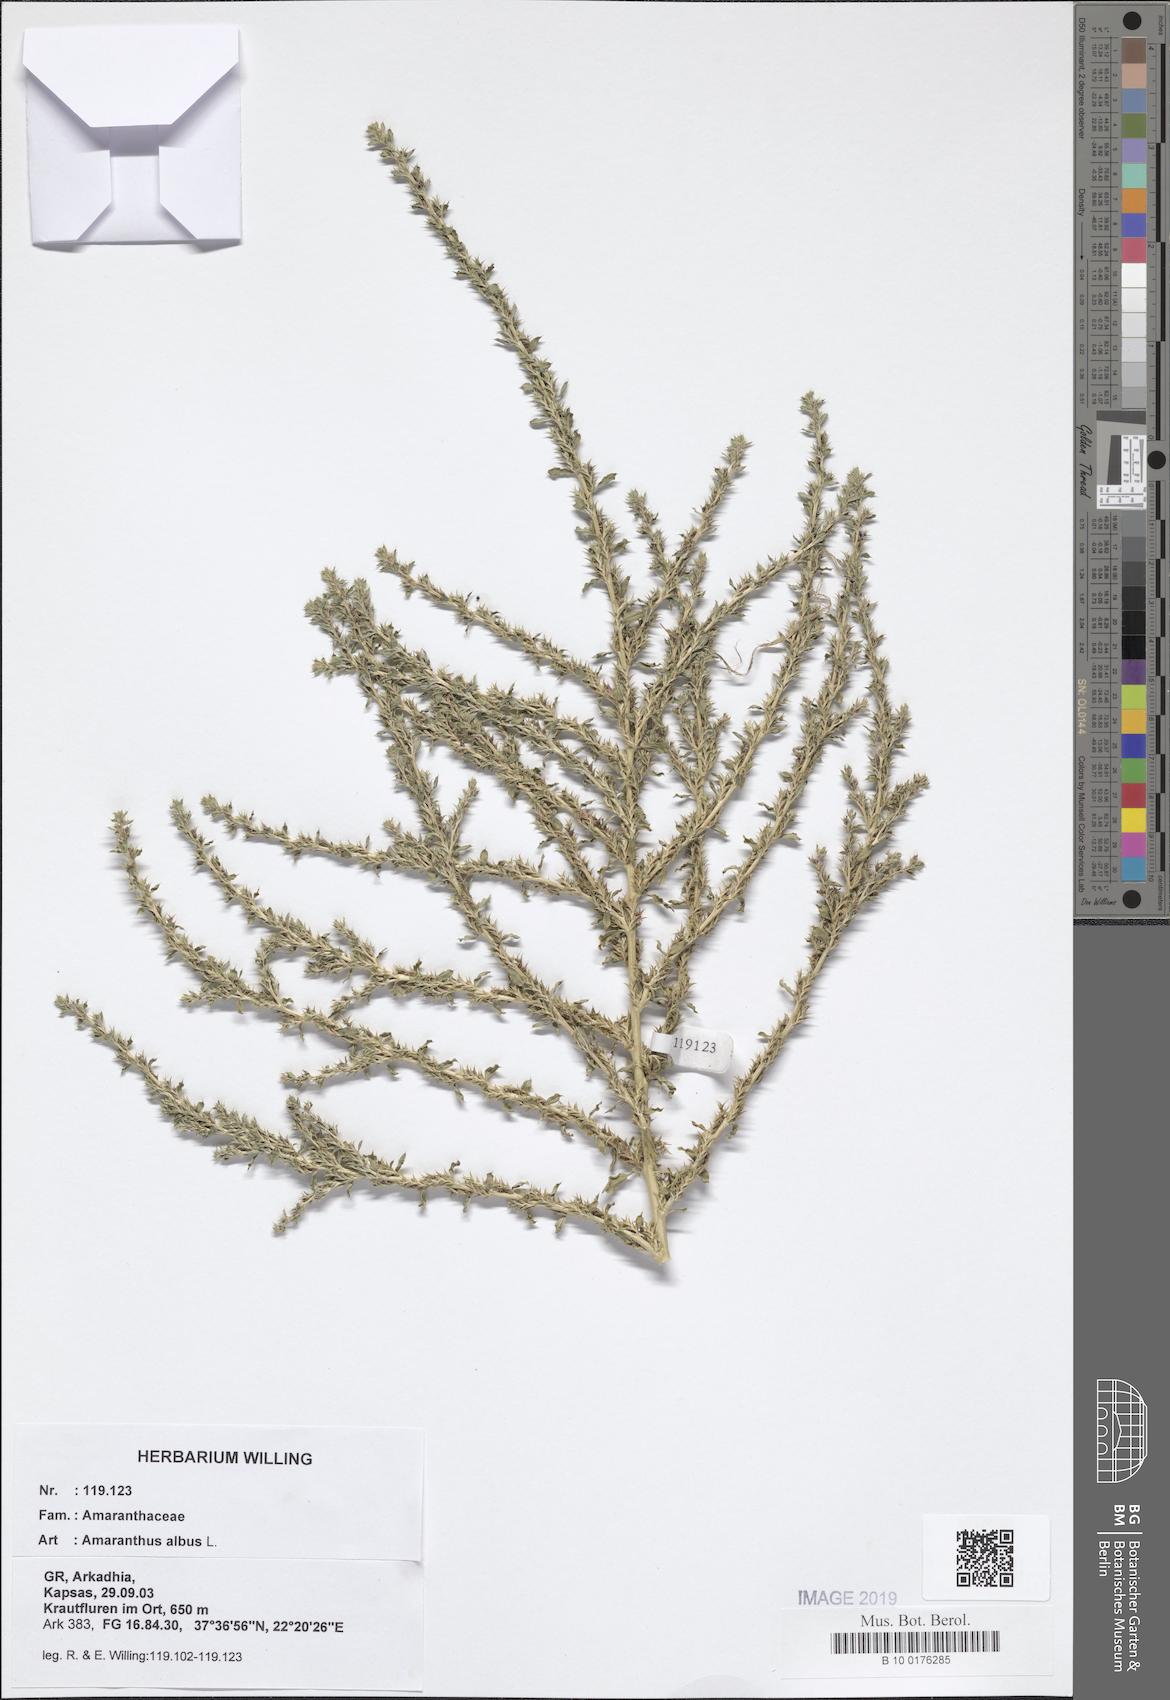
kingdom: Plantae
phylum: Tracheophyta
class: Magnoliopsida
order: Caryophyllales
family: Amaranthaceae
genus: Amaranthus
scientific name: Amaranthus albus
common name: White pigweed
